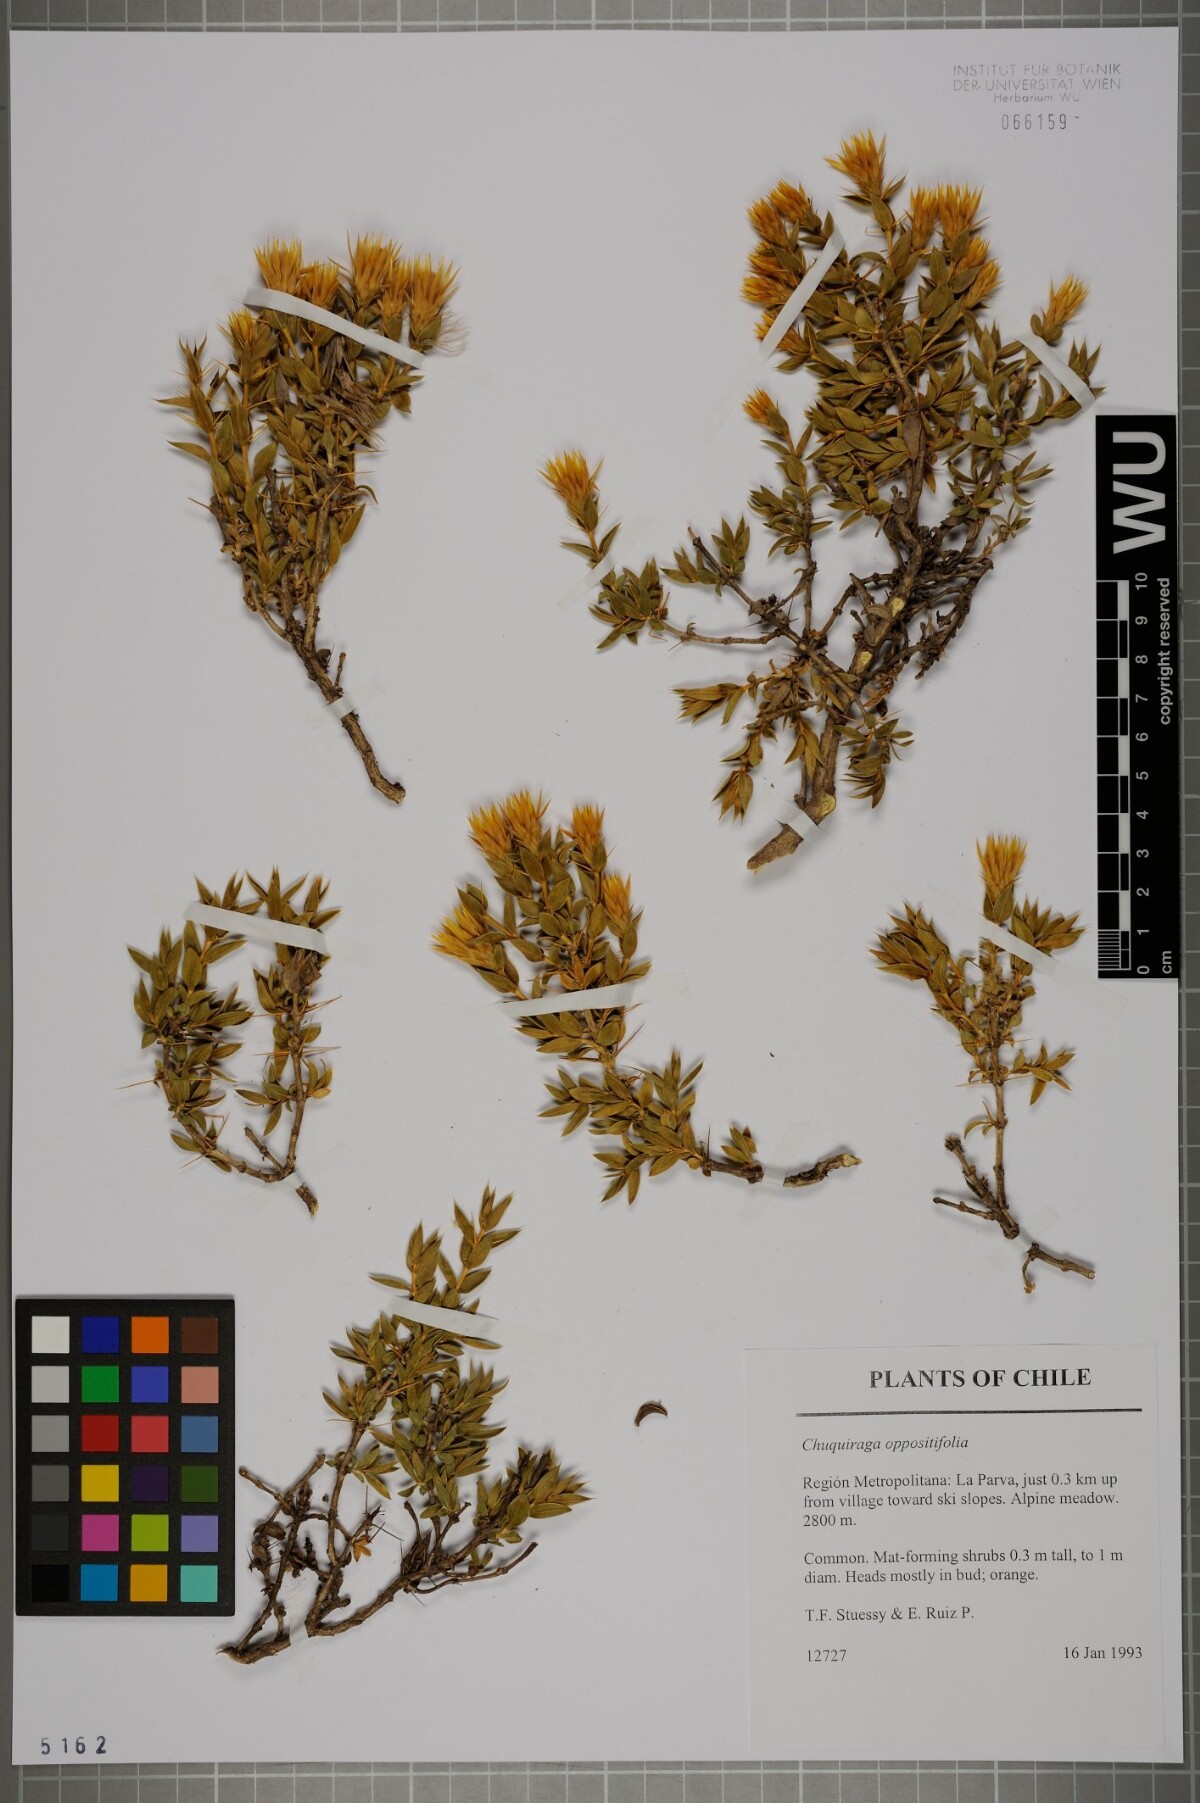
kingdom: Plantae
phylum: Tracheophyta
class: Magnoliopsida
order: Asterales
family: Asteraceae
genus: Chuquiraga
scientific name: Chuquiraga oppositifolia
